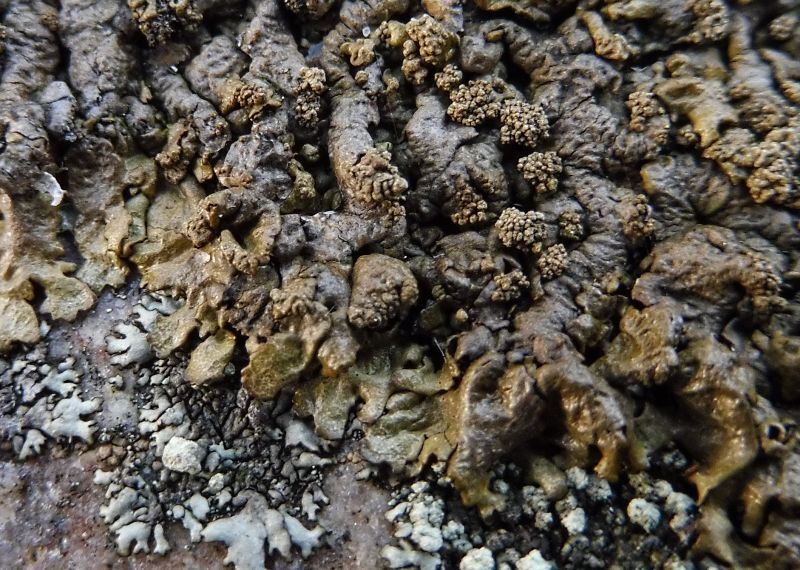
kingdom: Fungi
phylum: Ascomycota
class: Lecanoromycetes
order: Lecanorales
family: Parmeliaceae
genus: Xanthoparmelia
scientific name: Xanthoparmelia loxodes
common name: knudret skållav
